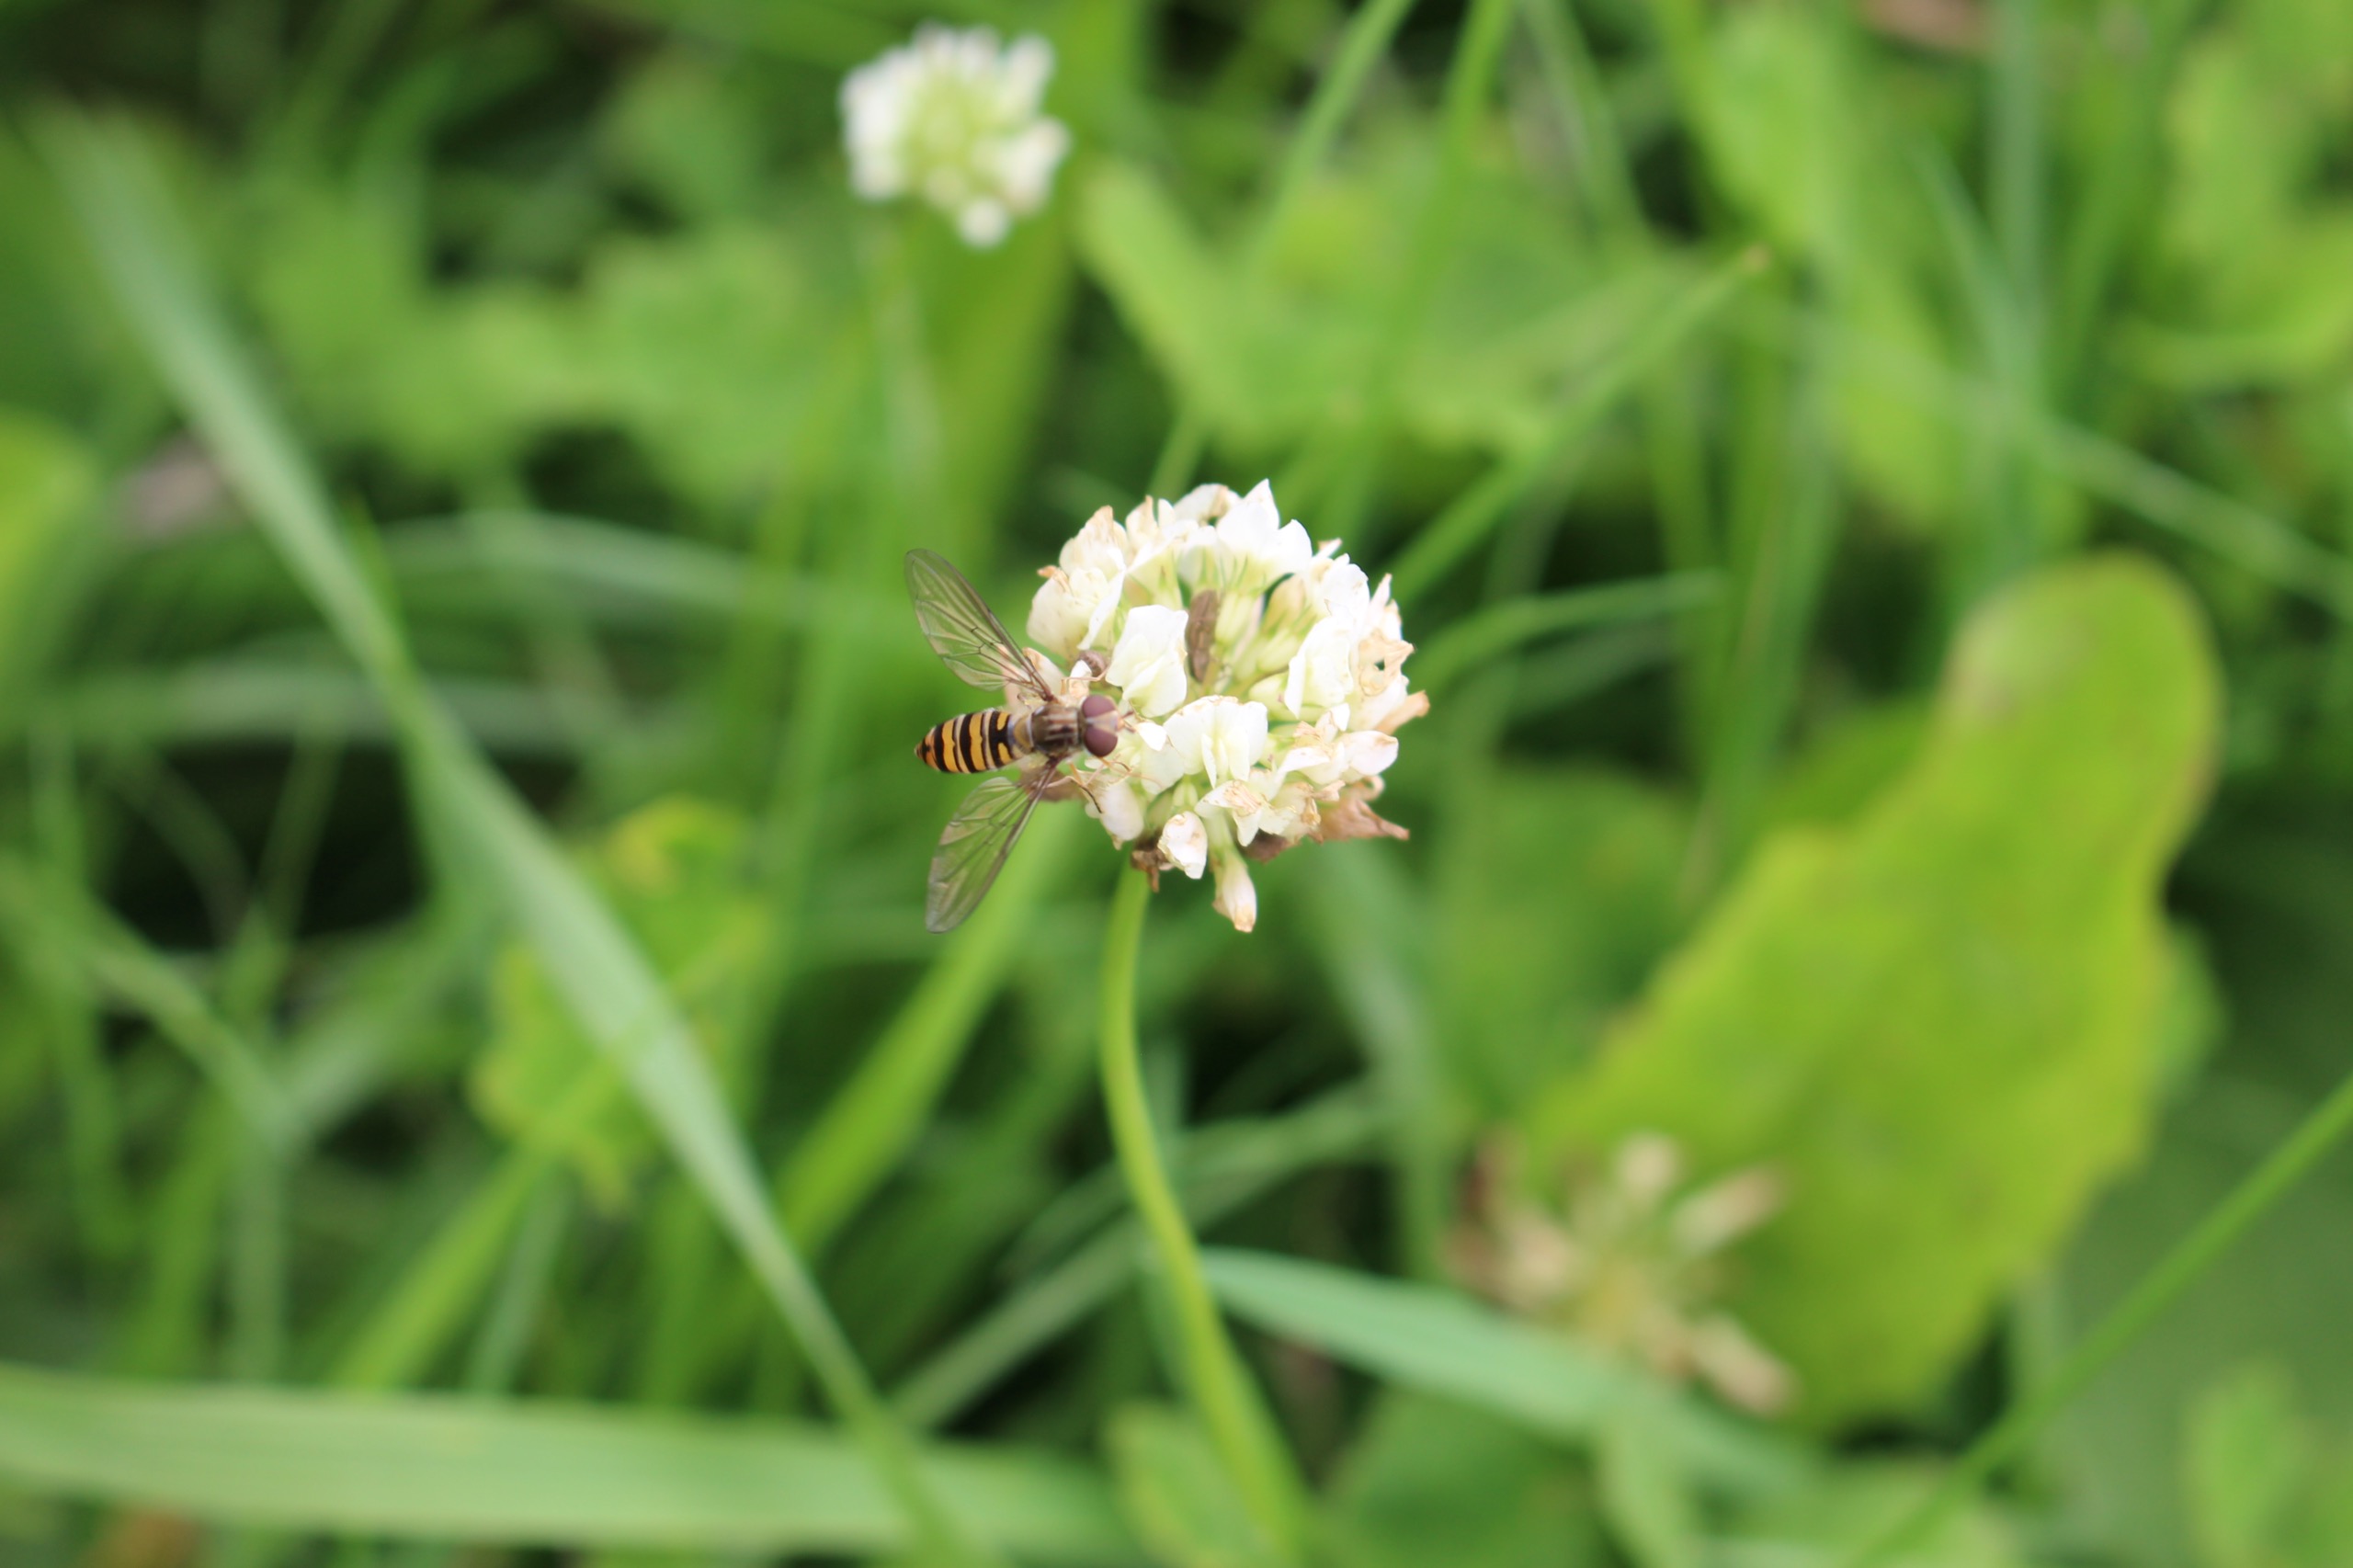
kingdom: Animalia
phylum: Arthropoda
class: Insecta
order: Diptera
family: Syrphidae
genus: Episyrphus
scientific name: Episyrphus balteatus
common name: Dobbeltbåndet svirreflue
